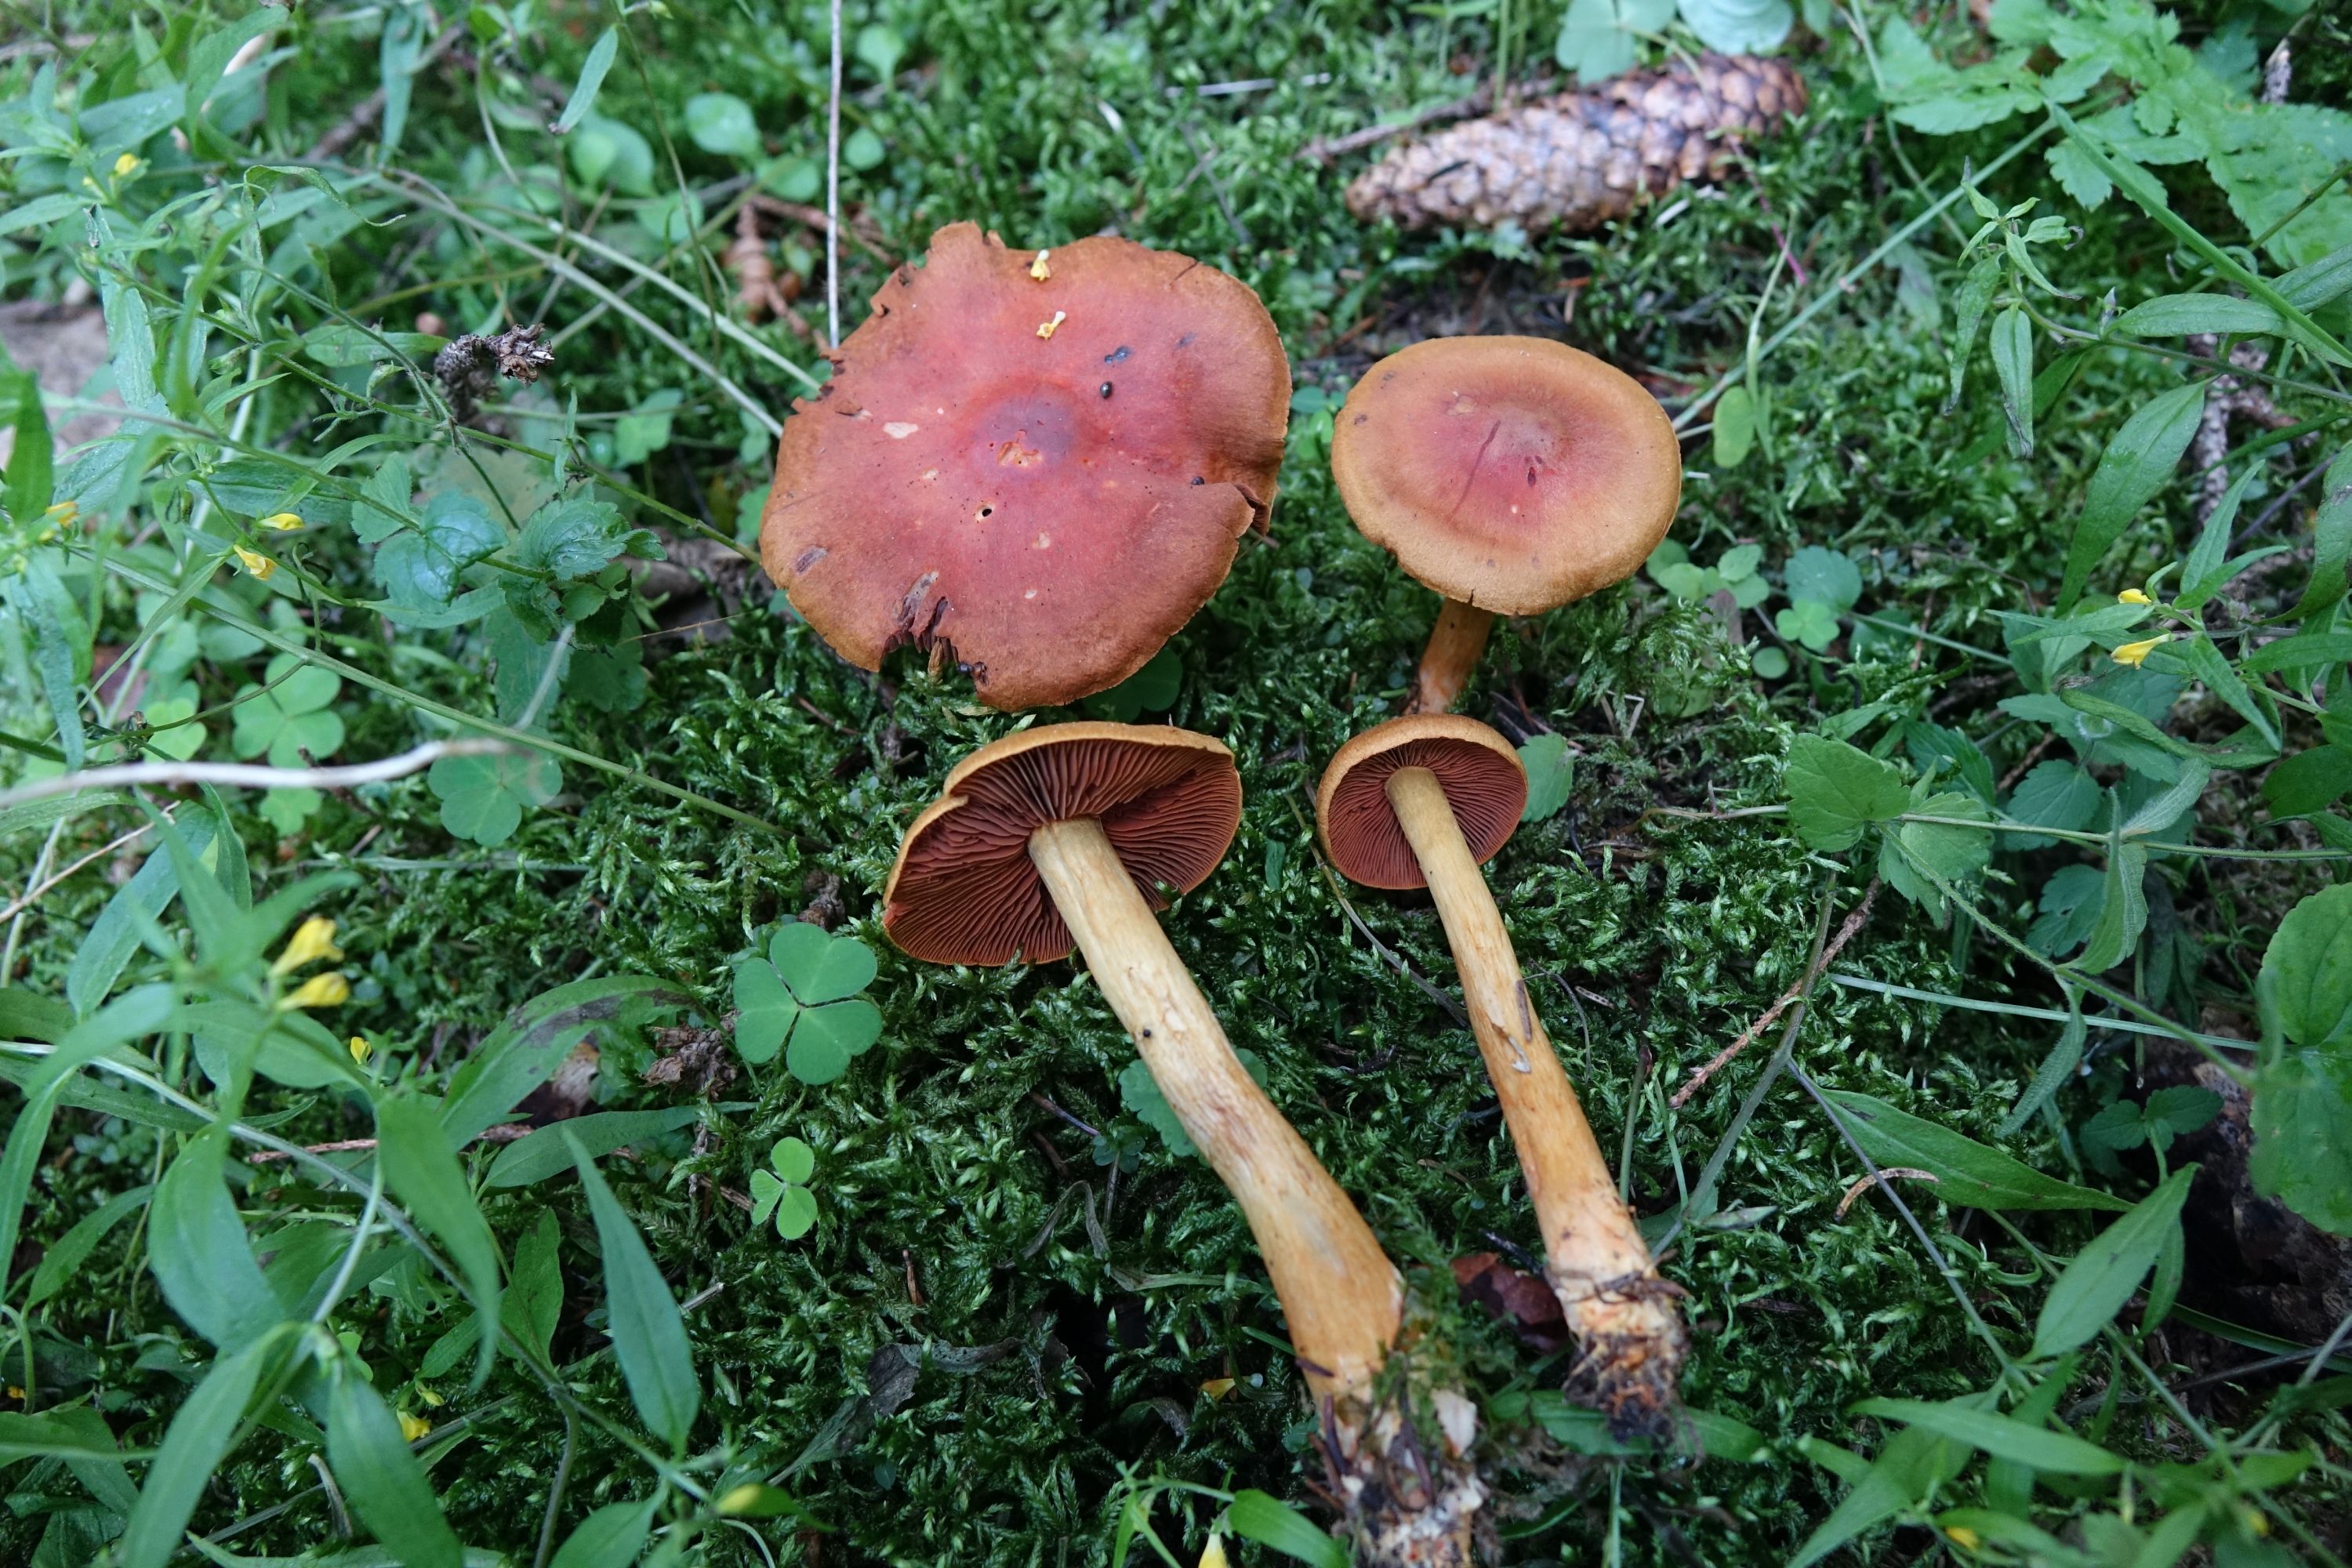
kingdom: Fungi
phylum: Basidiomycota
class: Agaricomycetes
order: Agaricales
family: Cortinariaceae
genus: Cortinarius
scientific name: Cortinarius cruentiphyllus
